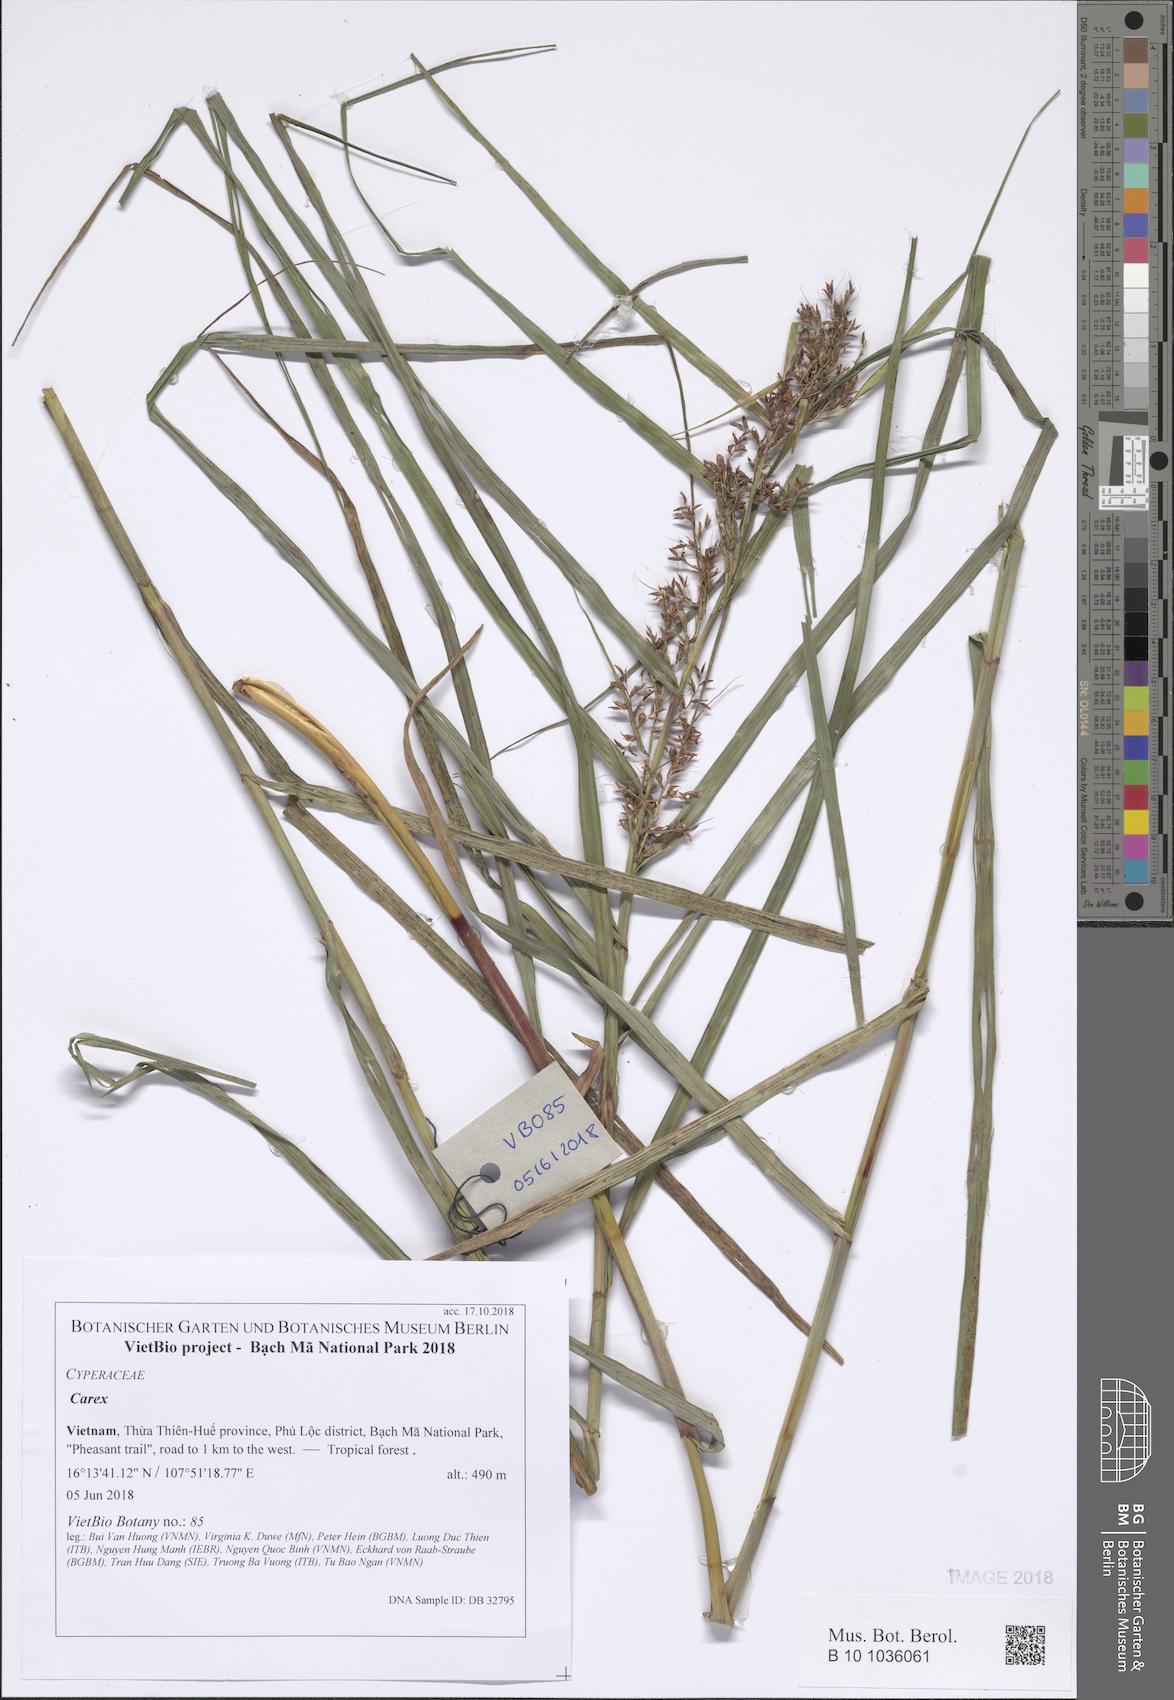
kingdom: Plantae
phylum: Tracheophyta
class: Liliopsida
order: Poales
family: Cyperaceae
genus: Carex
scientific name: Carex
